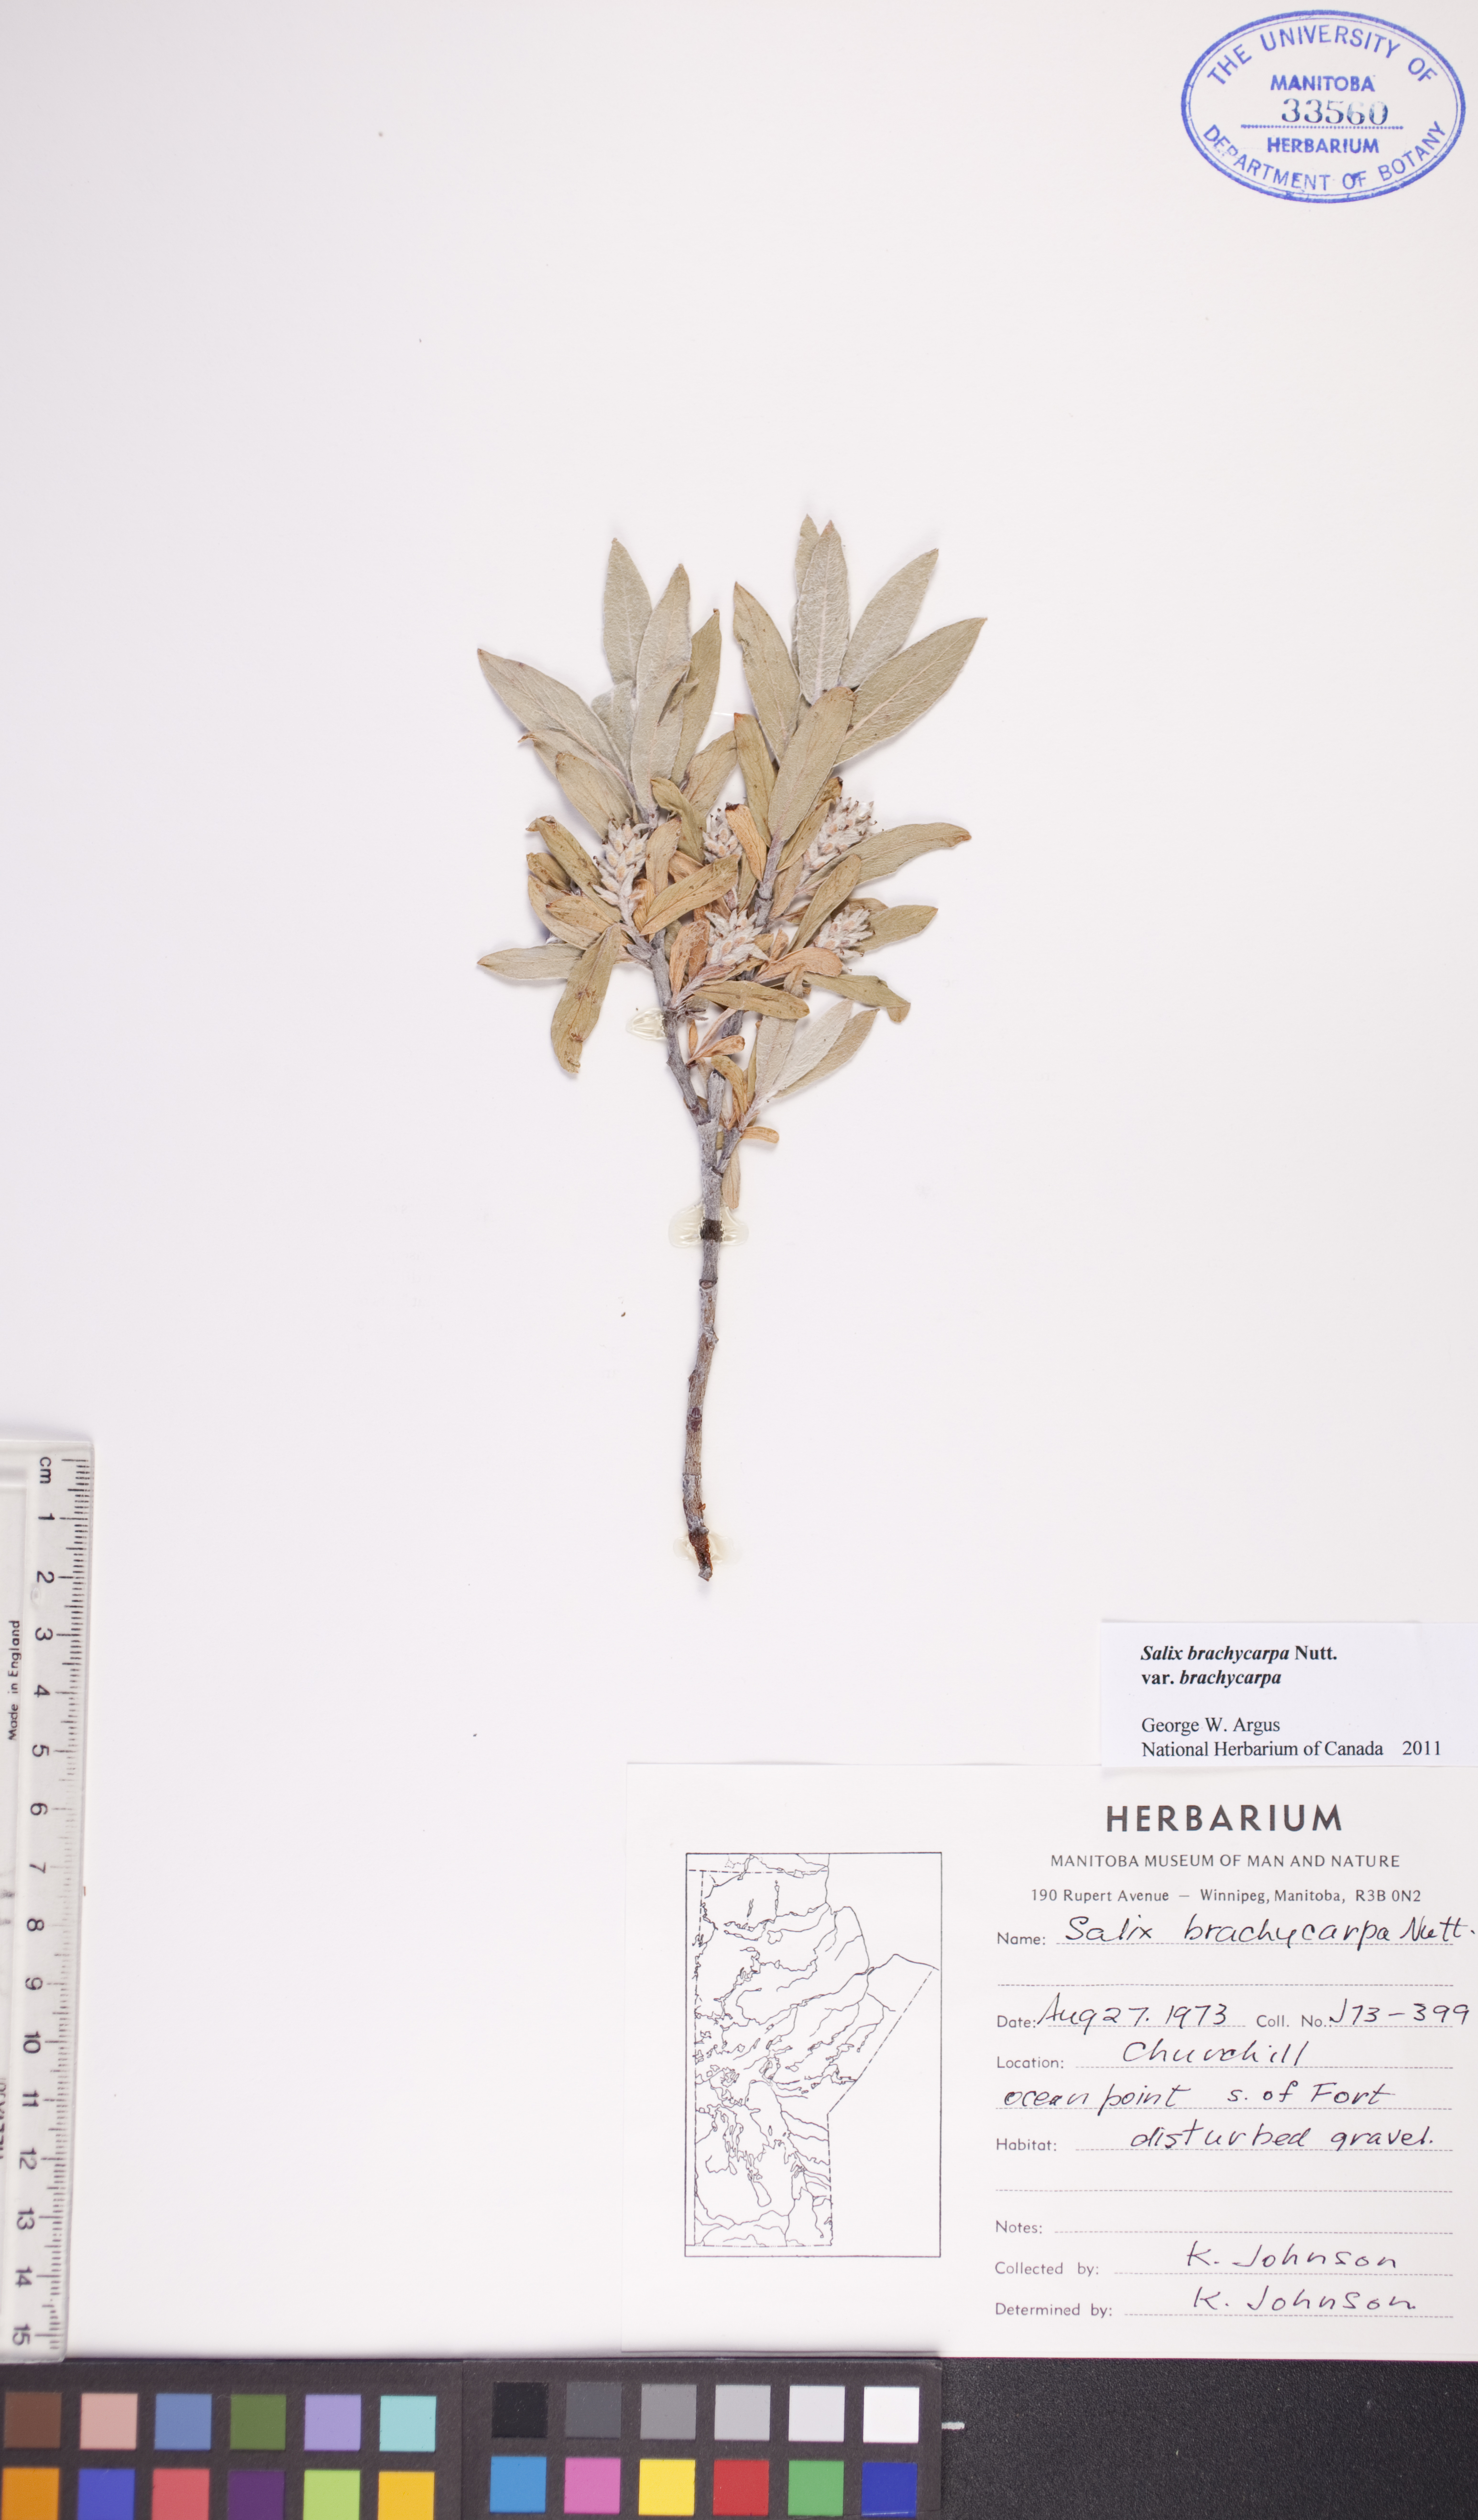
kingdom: Plantae
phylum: Tracheophyta
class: Magnoliopsida
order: Malpighiales
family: Salicaceae
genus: Salix
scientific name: Salix brachycarpa
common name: Barren-ground willow
